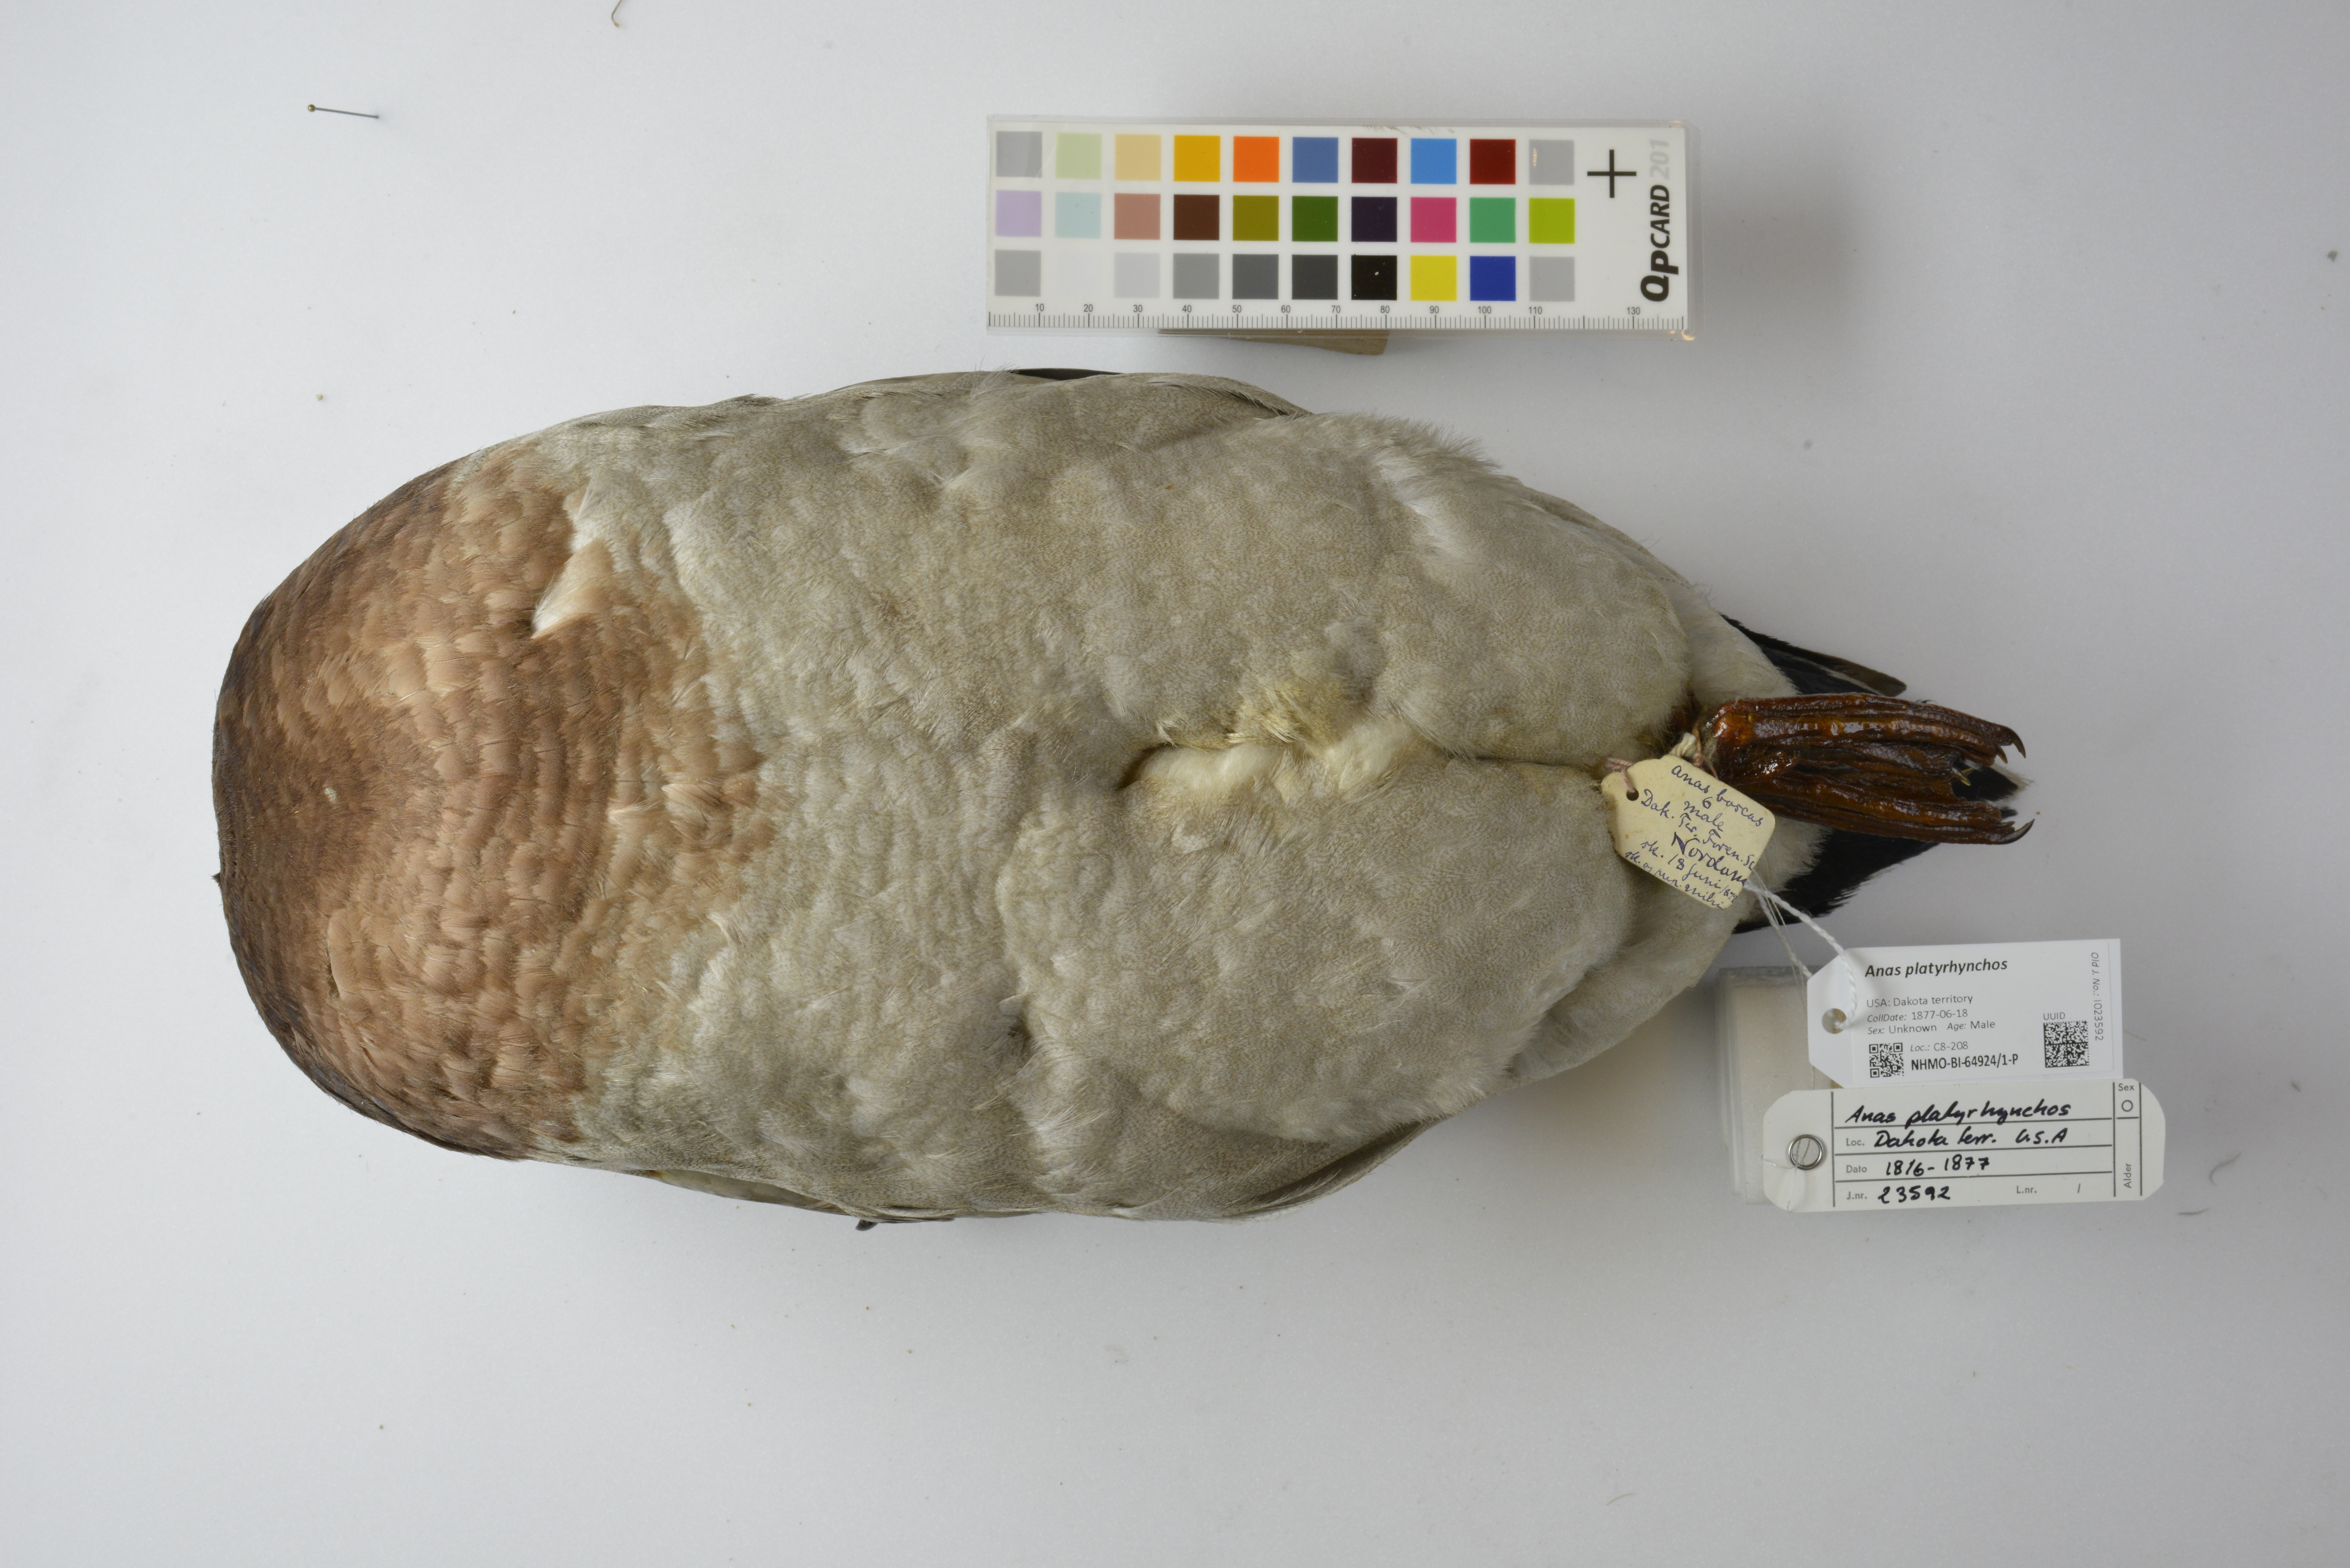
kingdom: Animalia
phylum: Chordata
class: Aves
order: Anseriformes
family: Anatidae
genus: Anas
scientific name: Anas platyrhynchos
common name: Mallard
